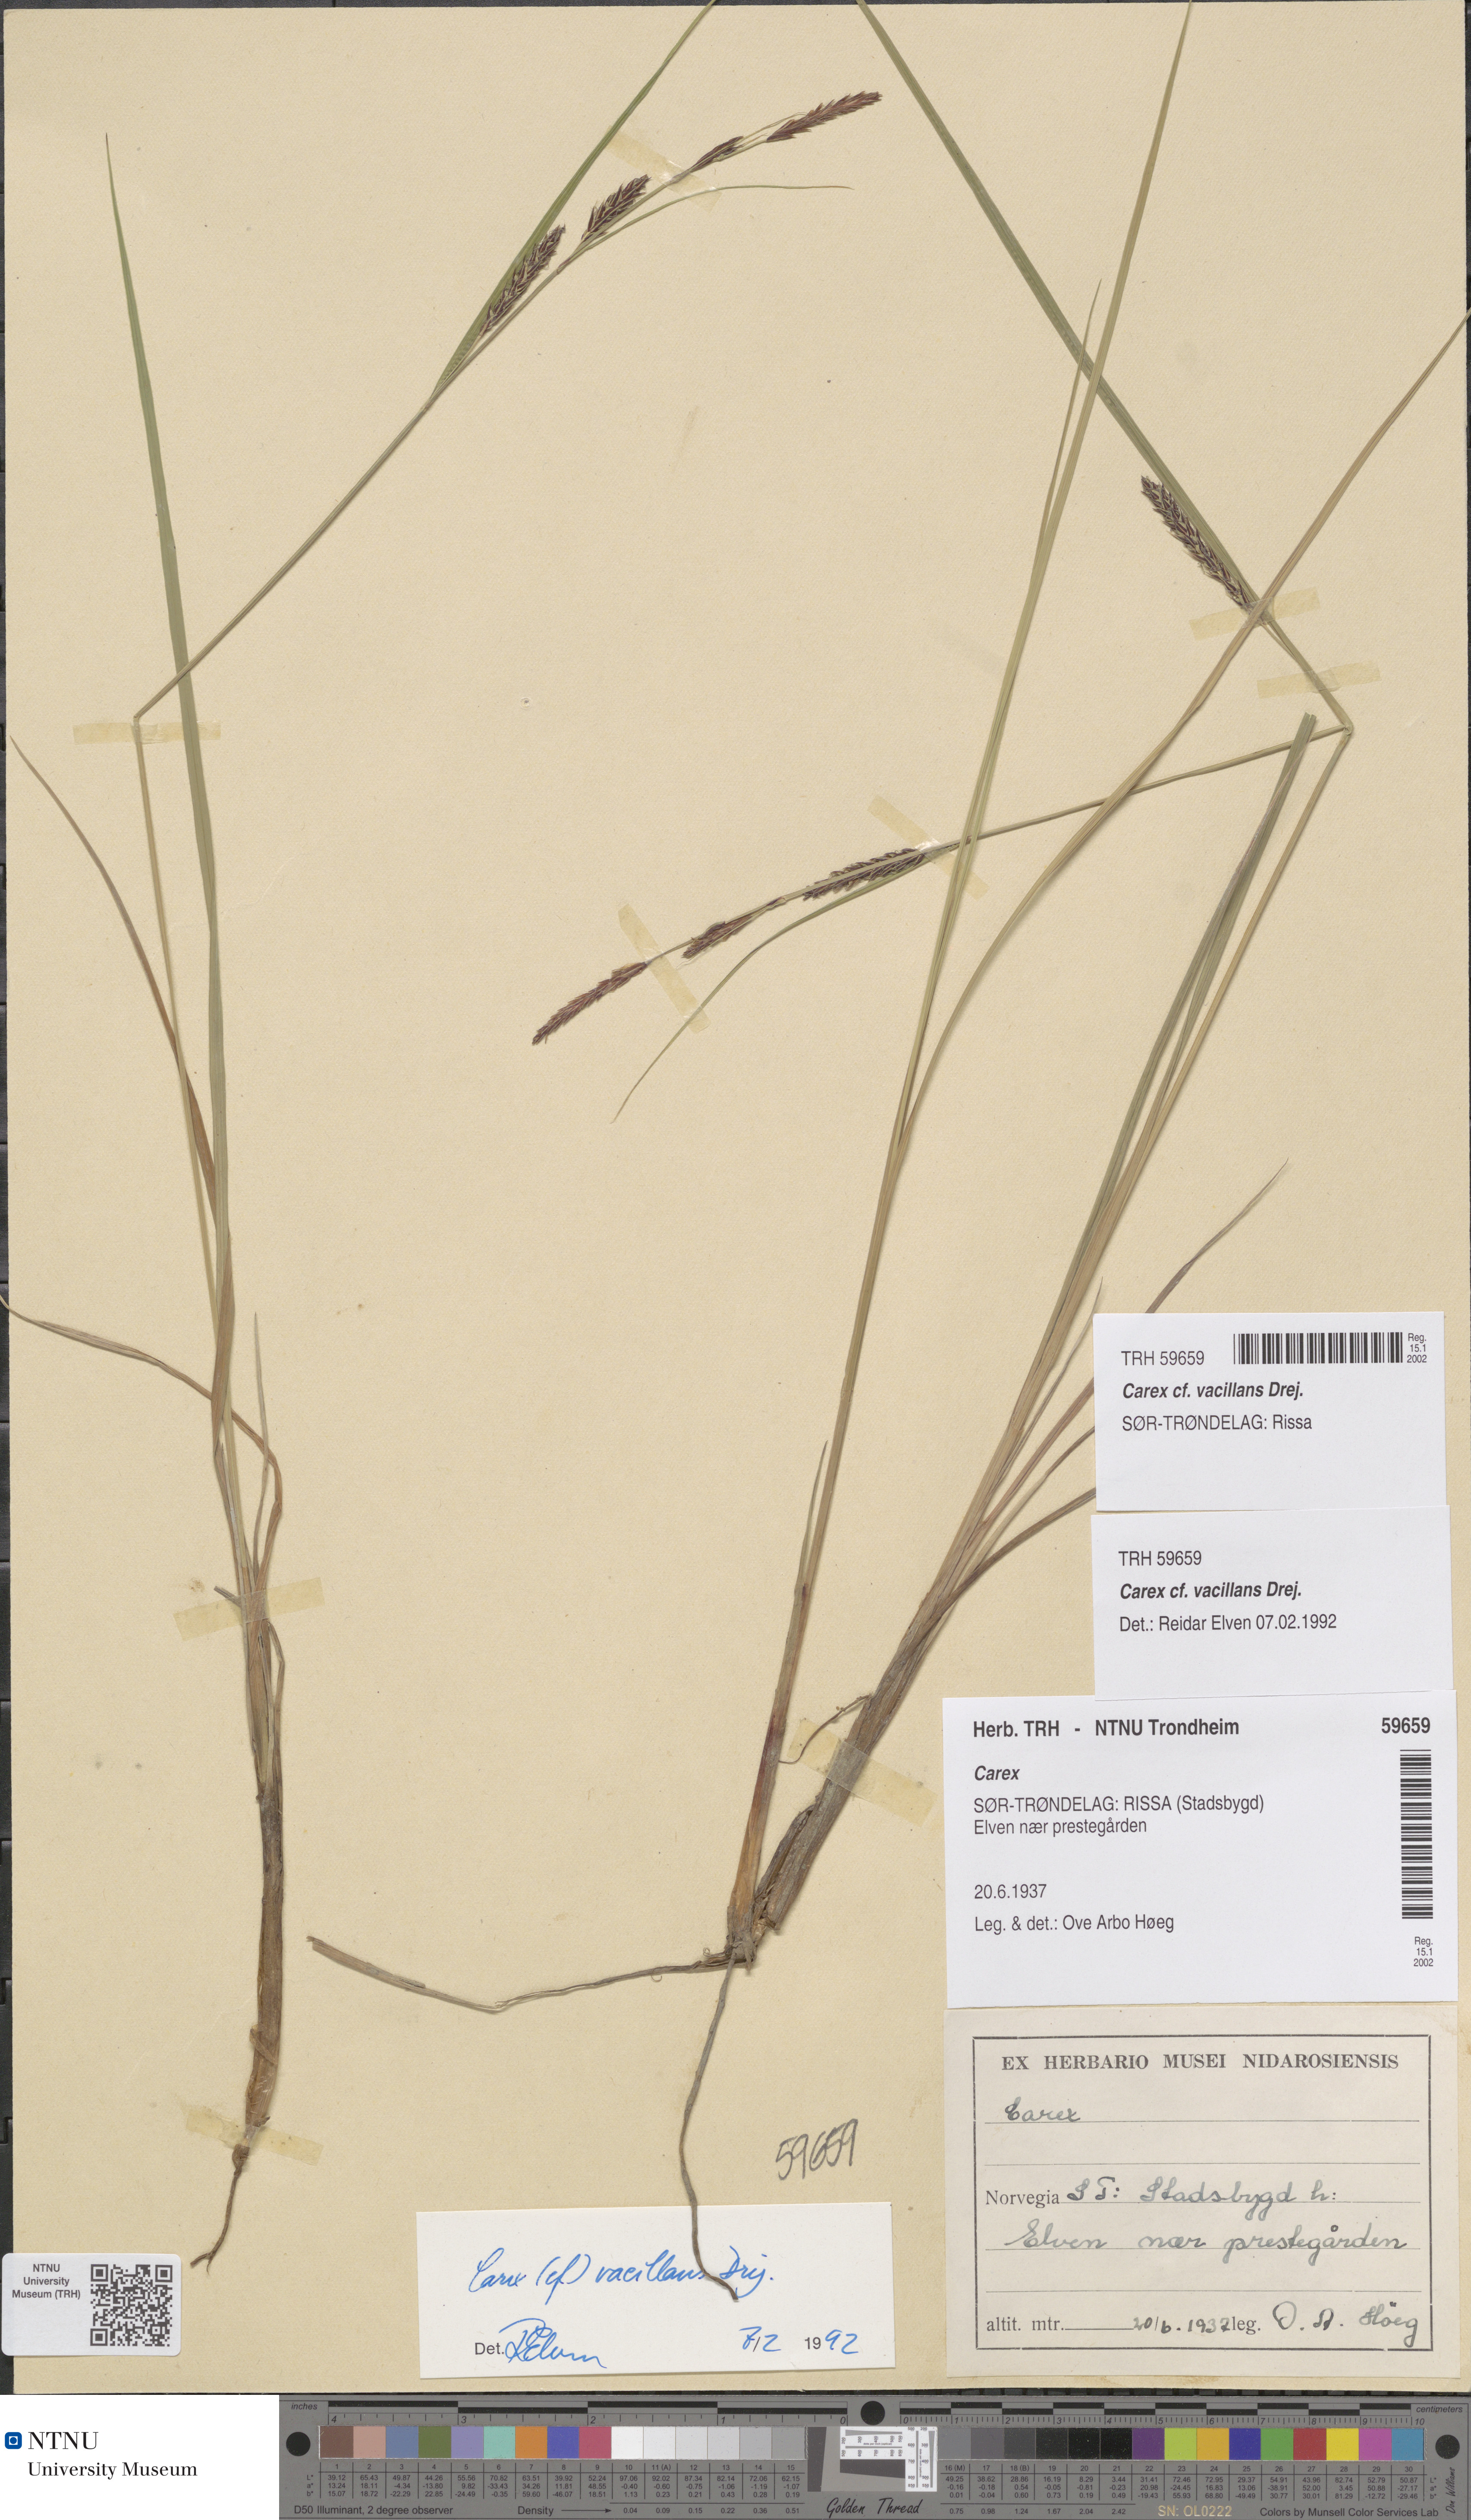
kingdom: Plantae
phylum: Tracheophyta
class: Liliopsida
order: Poales
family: Cyperaceae
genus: Carex
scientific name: Carex vacillans
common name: Sedge
